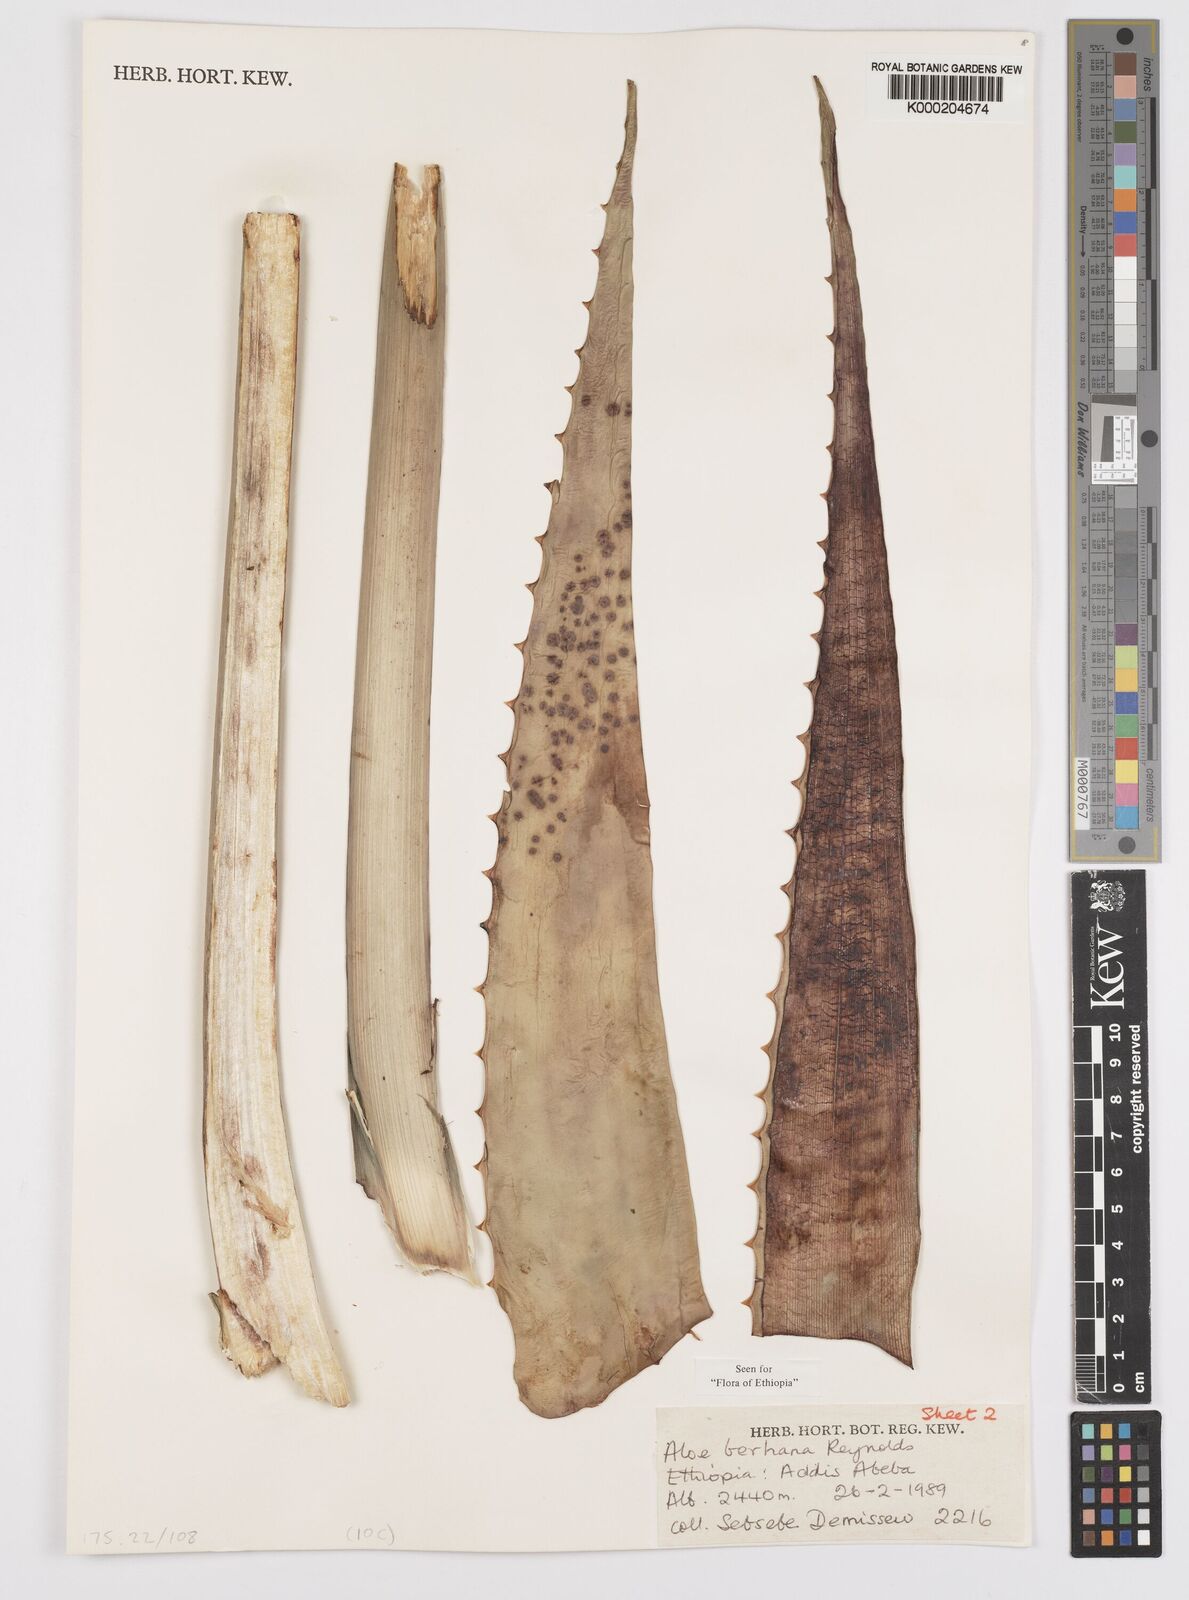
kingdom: Plantae
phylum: Tracheophyta
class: Liliopsida
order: Asparagales
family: Asphodelaceae
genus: Aloe
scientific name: Aloe debrana
